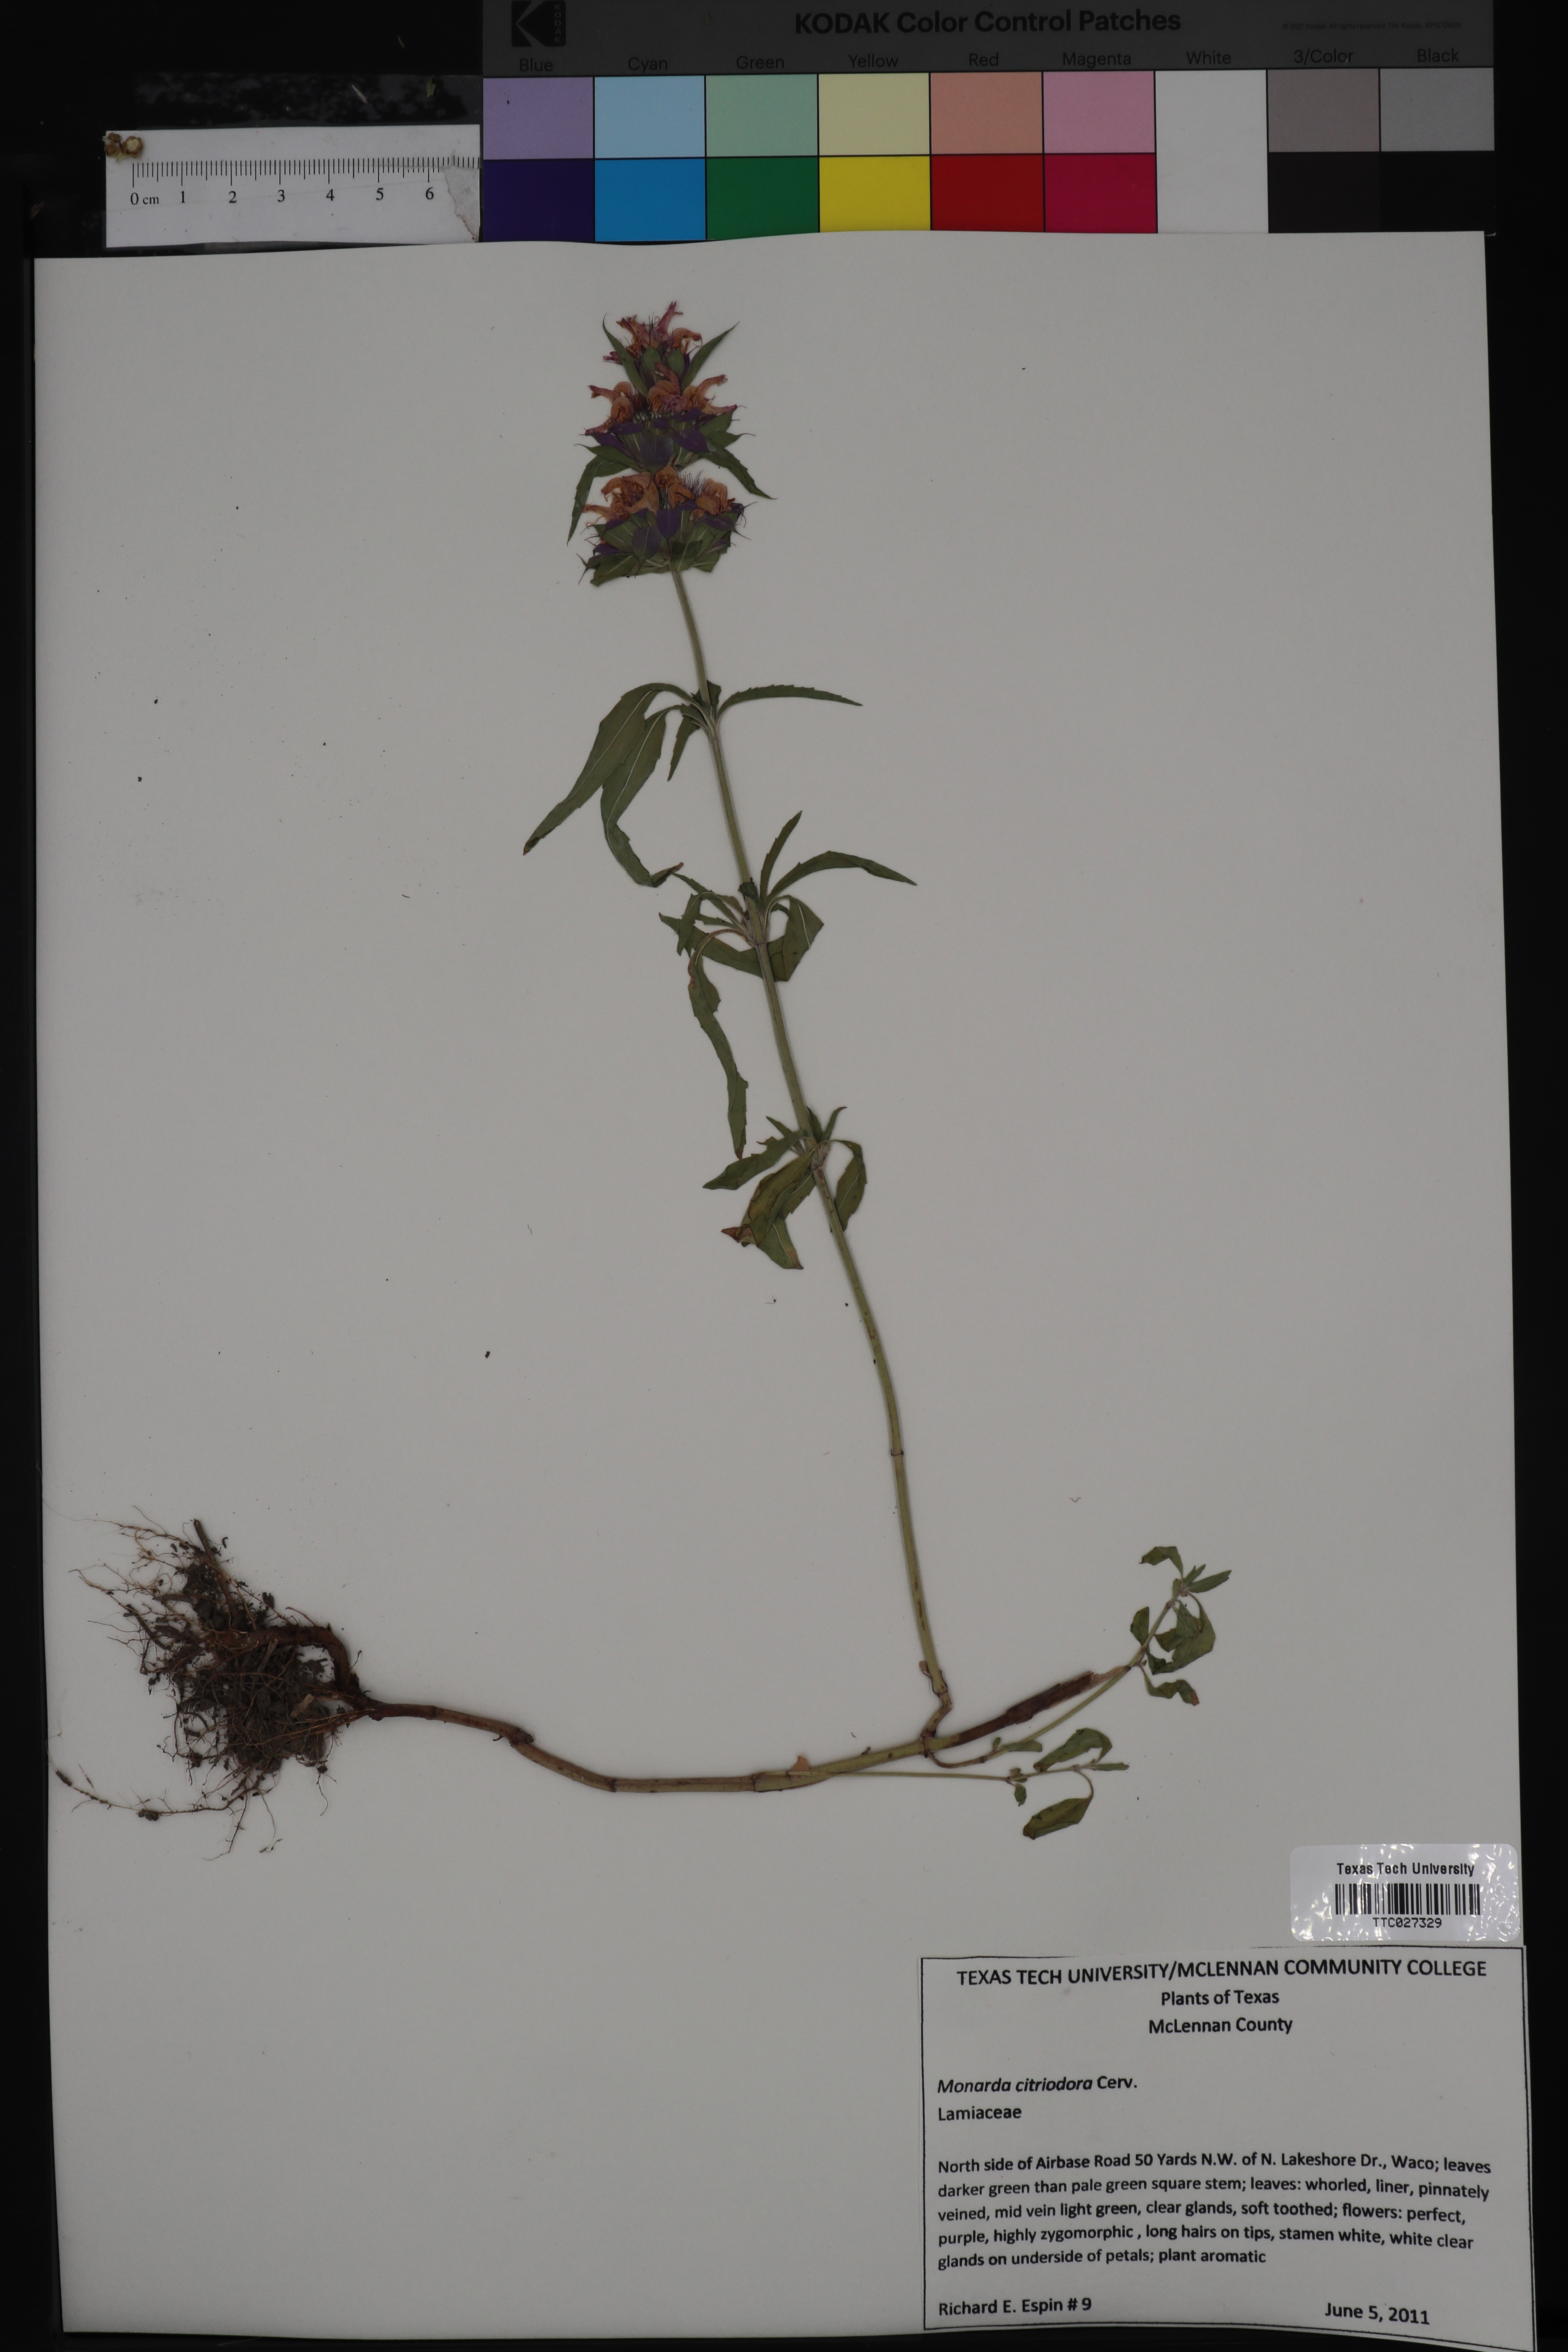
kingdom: Plantae
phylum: Tracheophyta
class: Magnoliopsida
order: Lamiales
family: Lamiaceae
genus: Monarda
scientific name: Monarda citriodora
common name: Lemon beebalm
